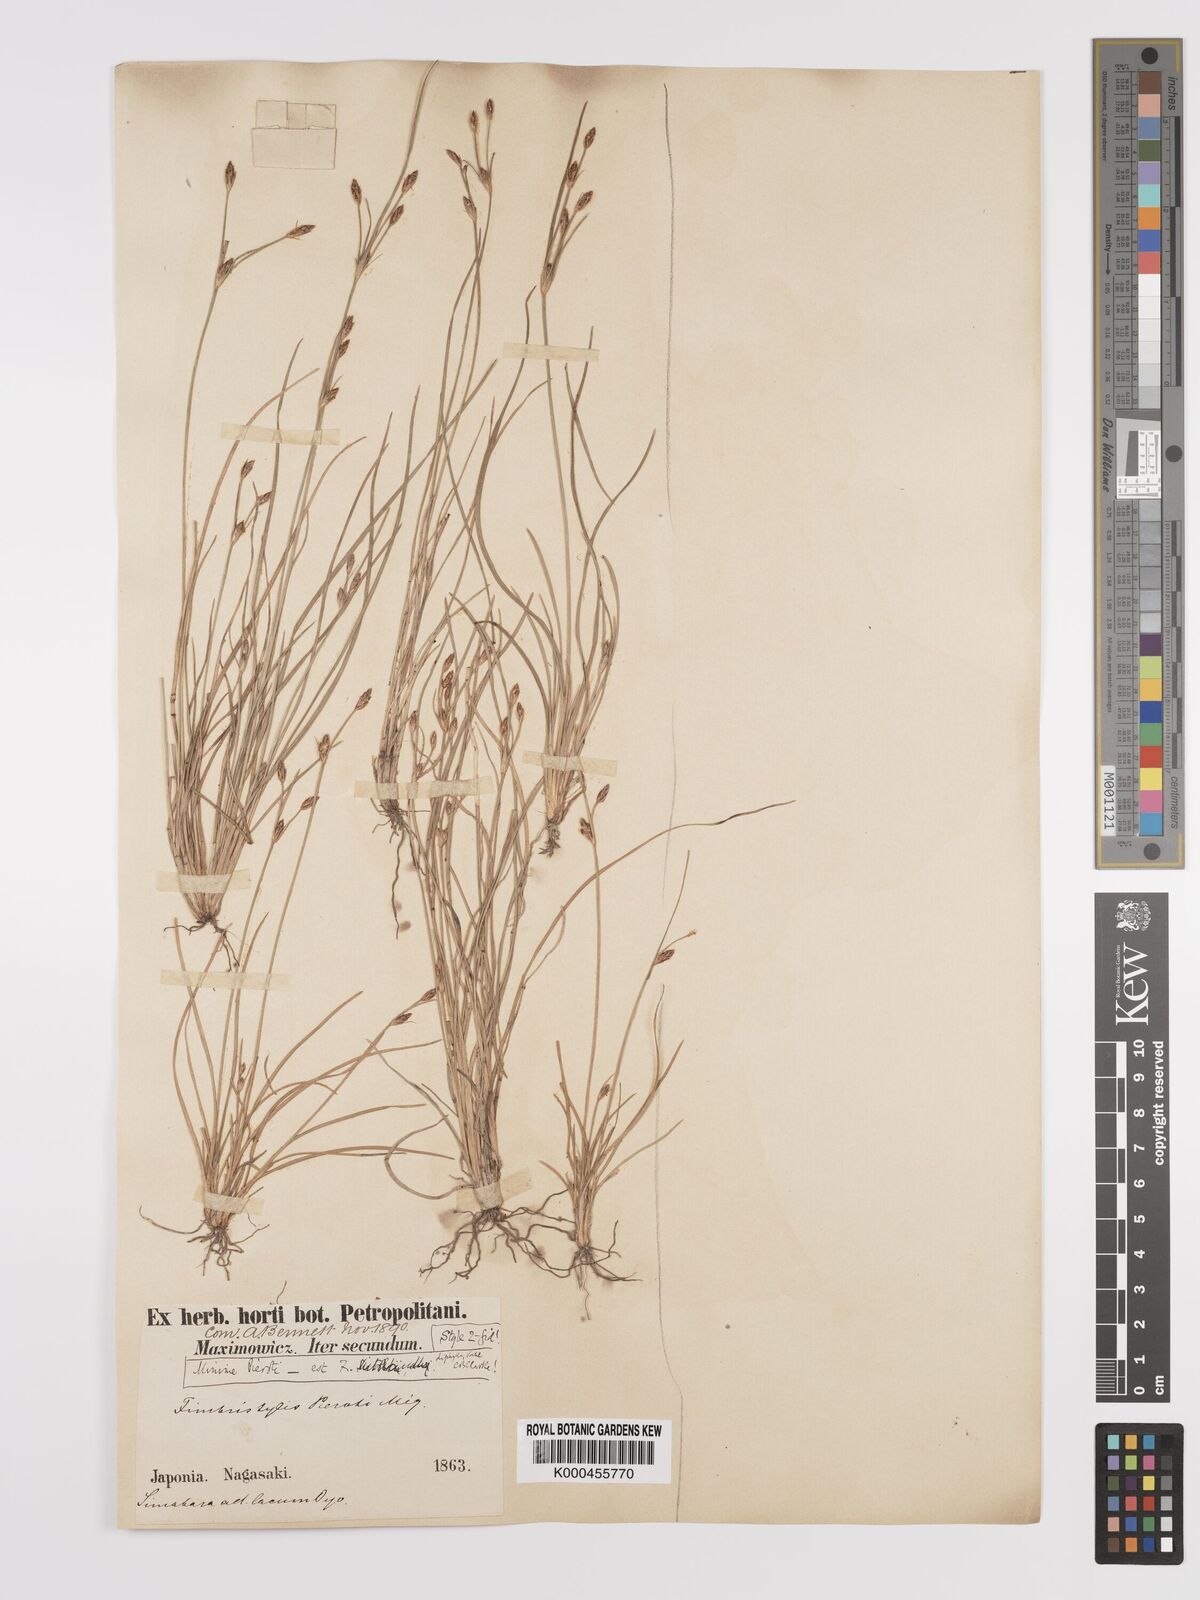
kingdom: Plantae
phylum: Tracheophyta
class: Liliopsida
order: Poales
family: Cyperaceae
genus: Fimbristylis
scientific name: Fimbristylis dichotoma
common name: Forked fimbry
